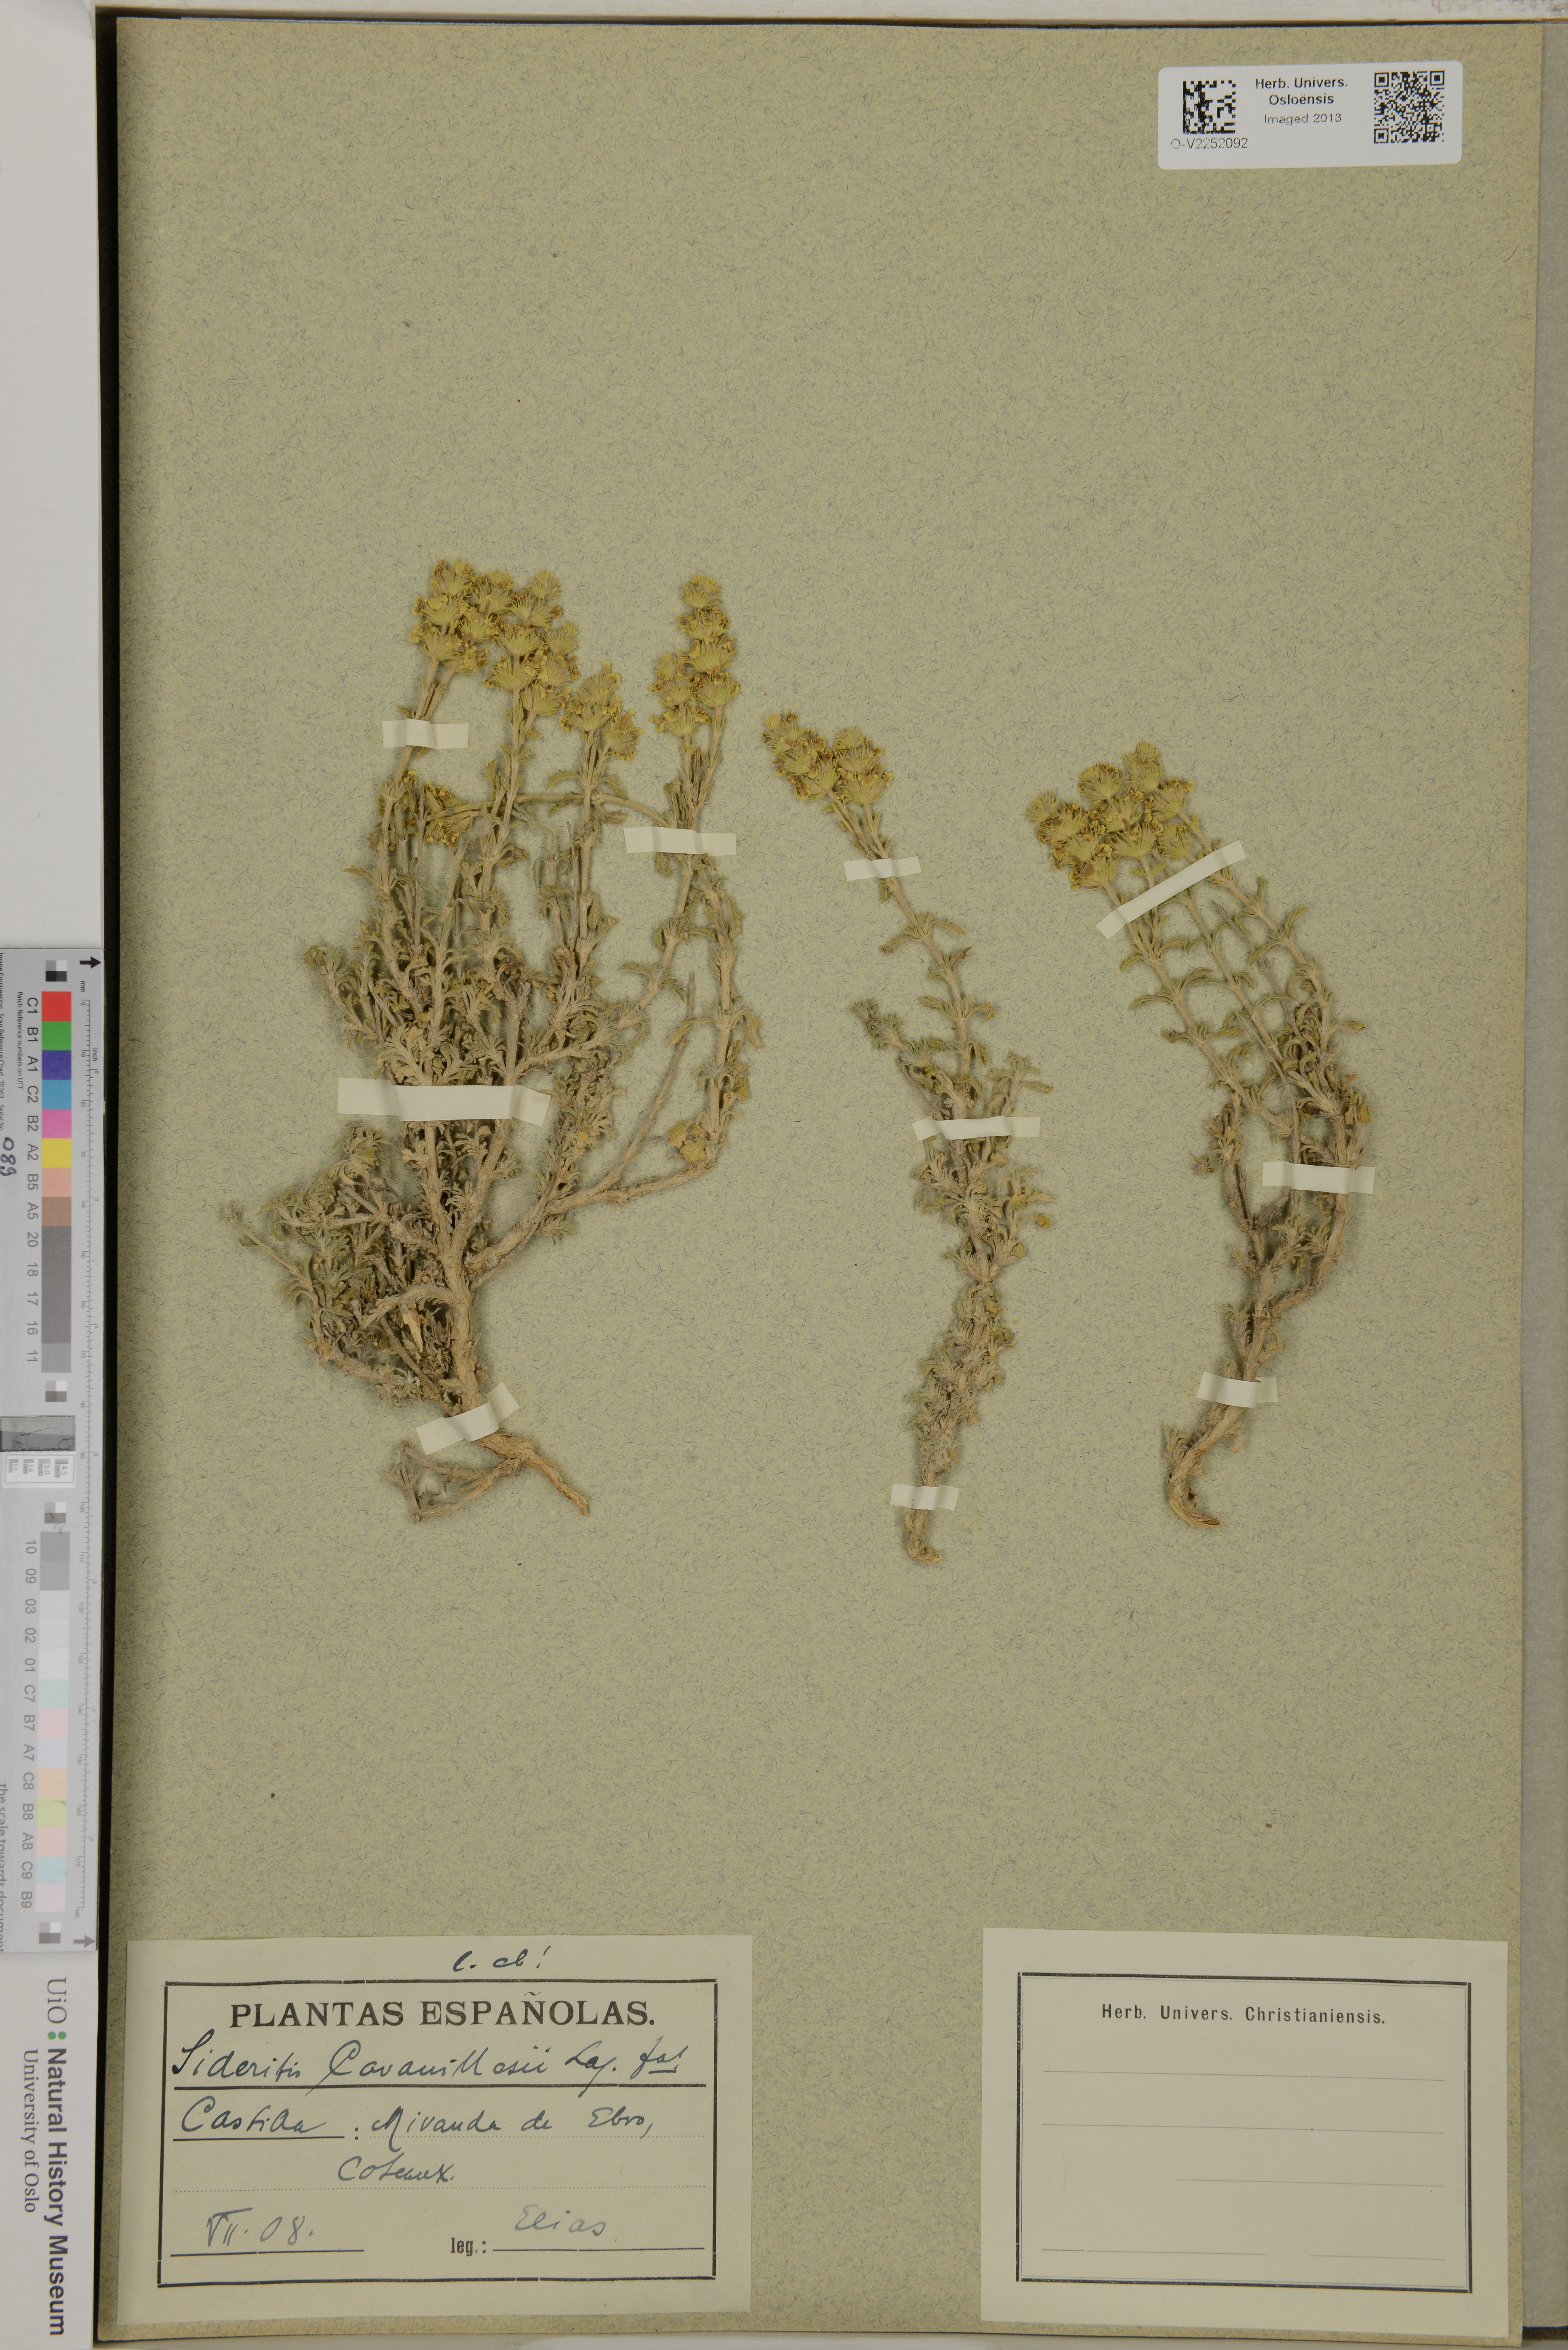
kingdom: Plantae
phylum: Tracheophyta
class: Magnoliopsida
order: Lamiales
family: Lamiaceae
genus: Sideritis
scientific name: Sideritis fruticulosa
